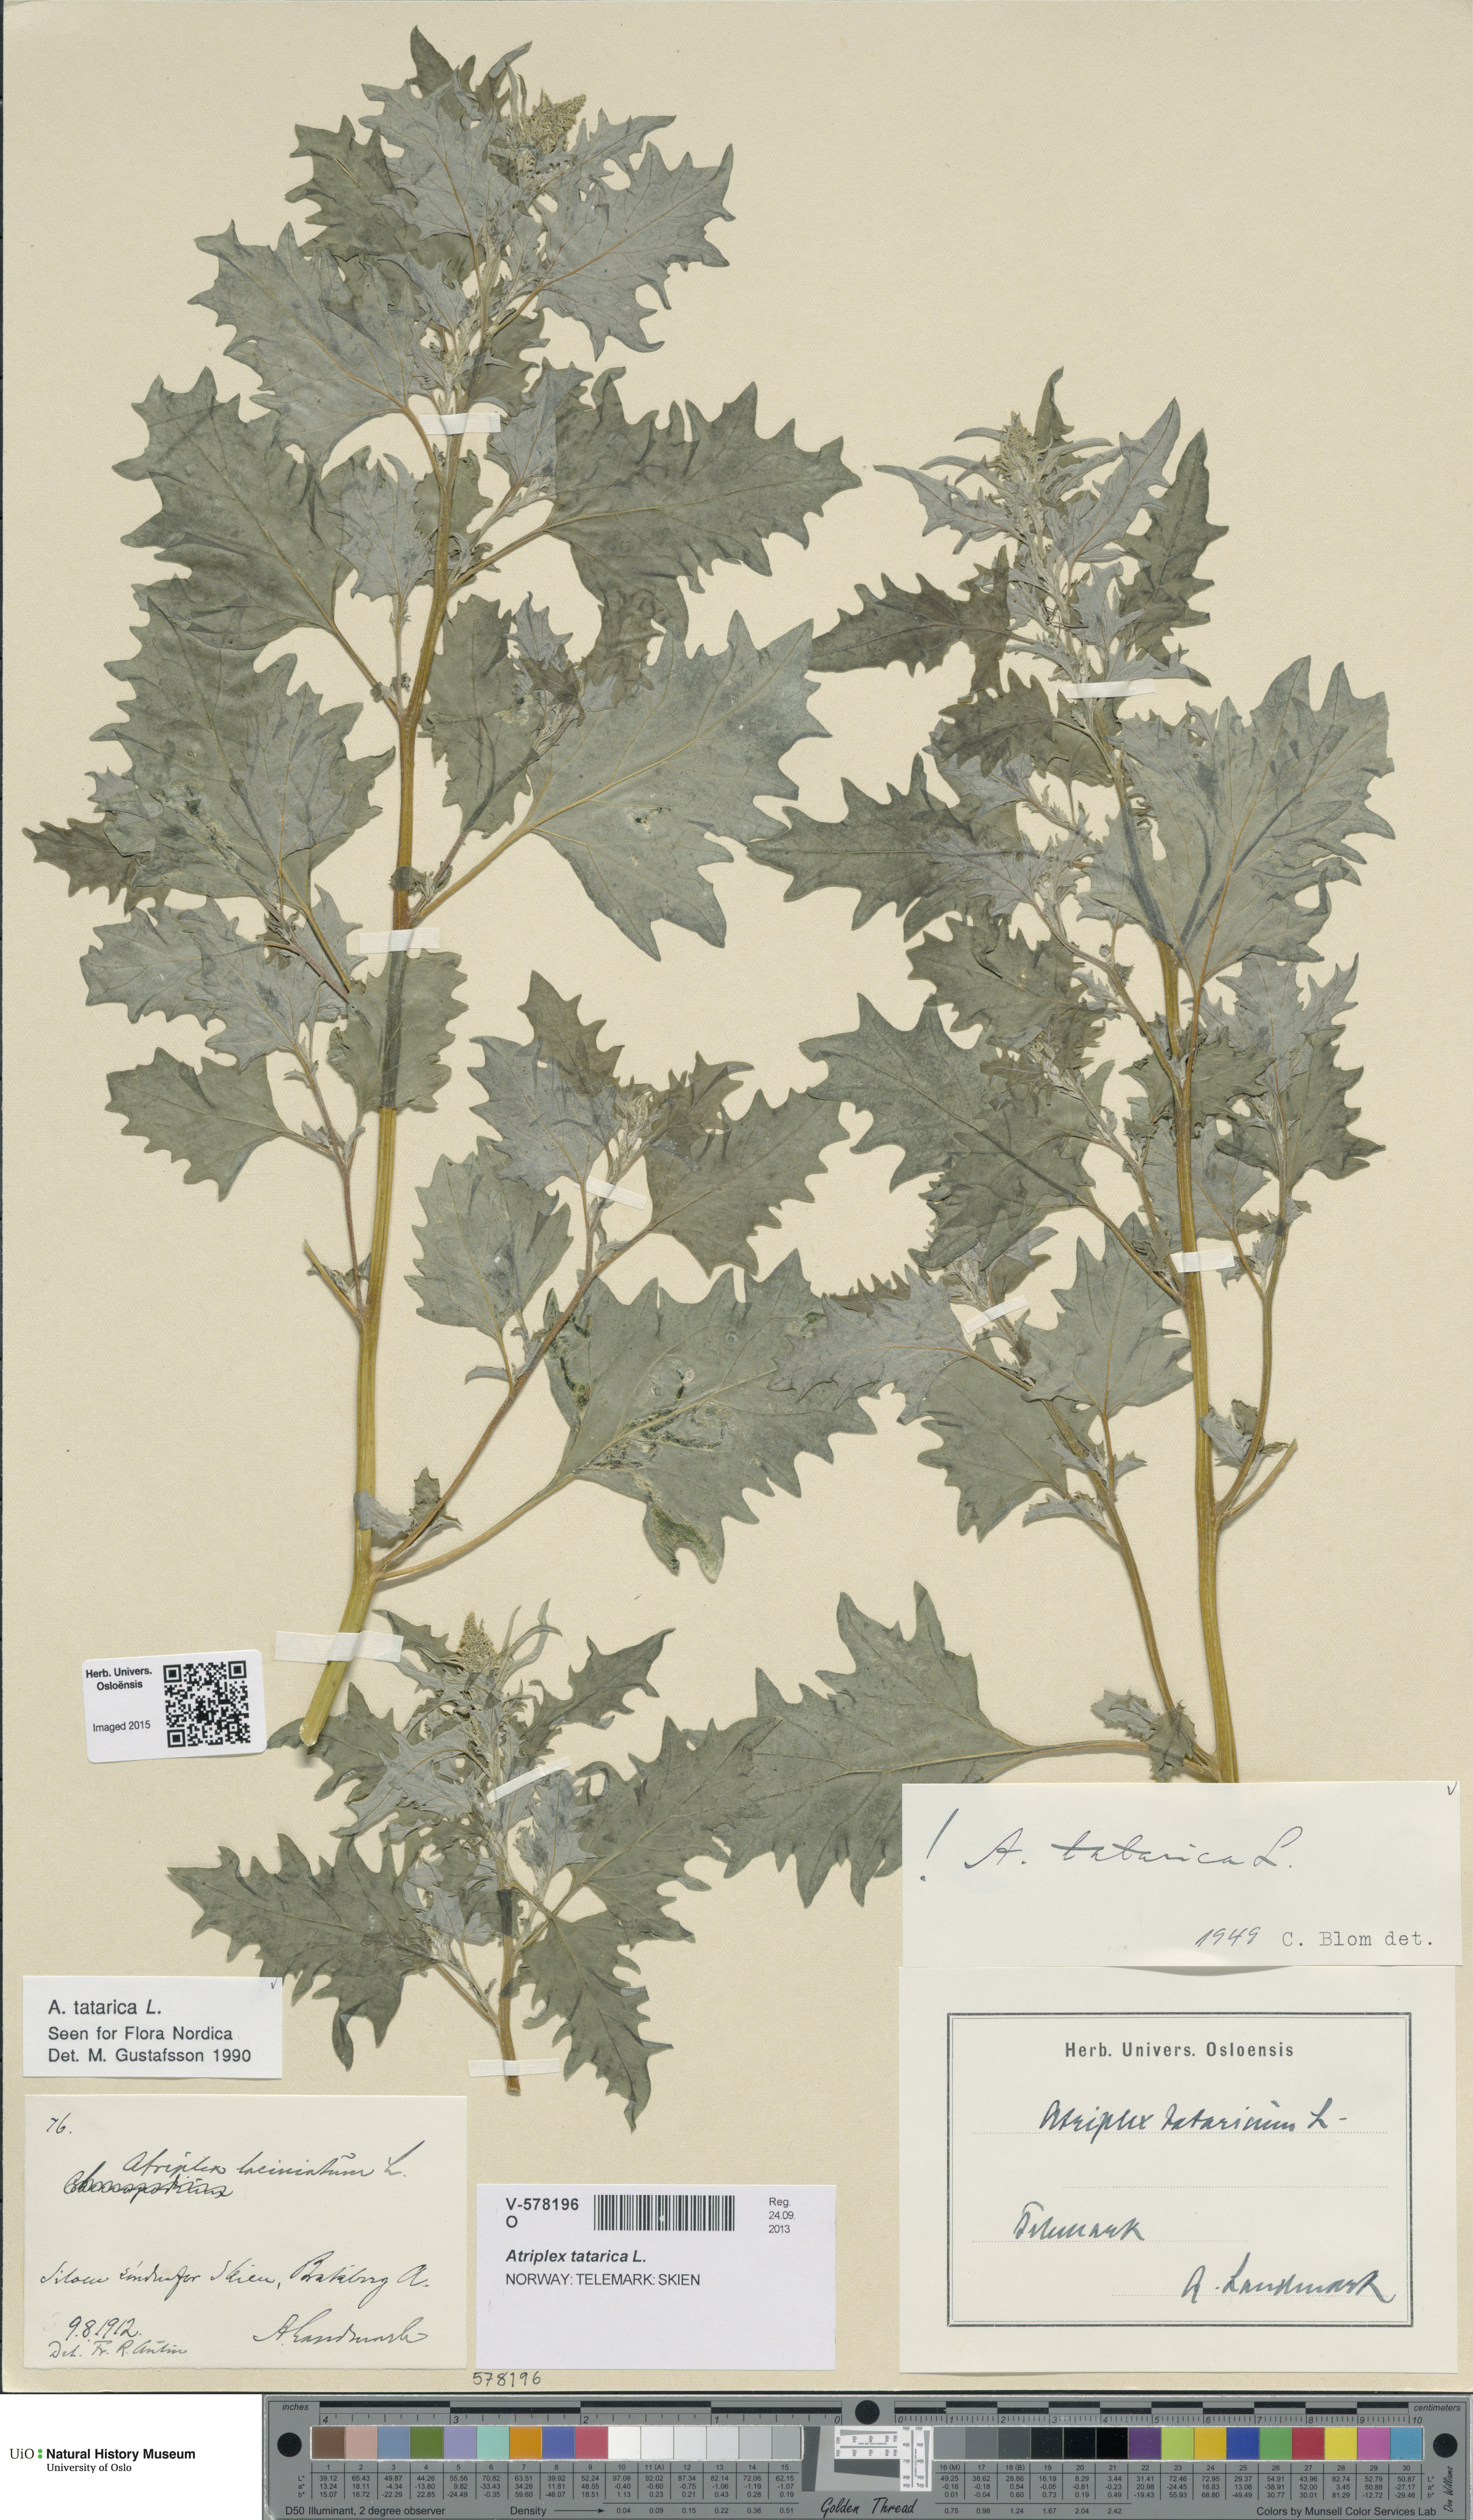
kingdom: Plantae
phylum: Tracheophyta
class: Magnoliopsida
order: Caryophyllales
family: Amaranthaceae
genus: Atriplex
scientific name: Atriplex tatarica
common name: Tatarian orache
